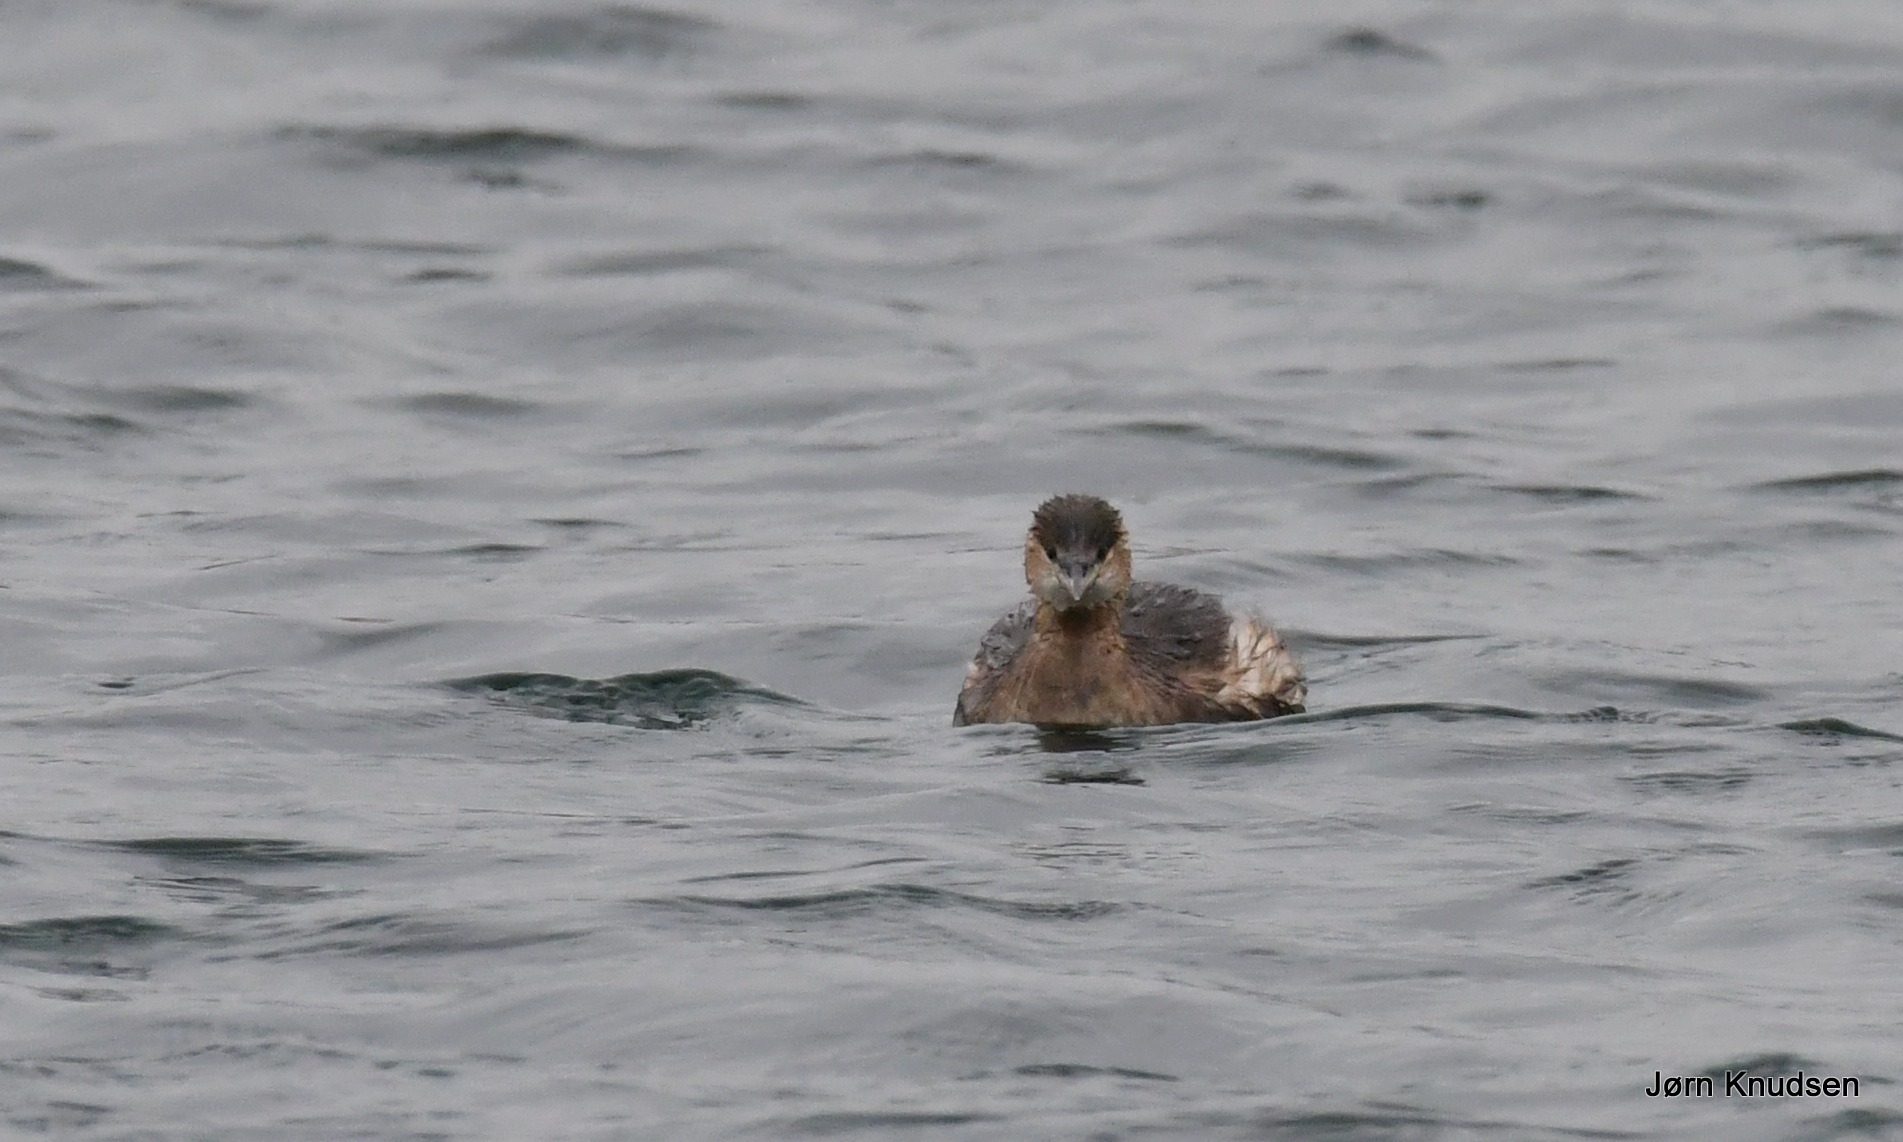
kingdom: Animalia
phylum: Chordata
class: Aves
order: Podicipediformes
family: Podicipedidae
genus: Tachybaptus
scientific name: Tachybaptus ruficollis
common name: Lille lappedykker
